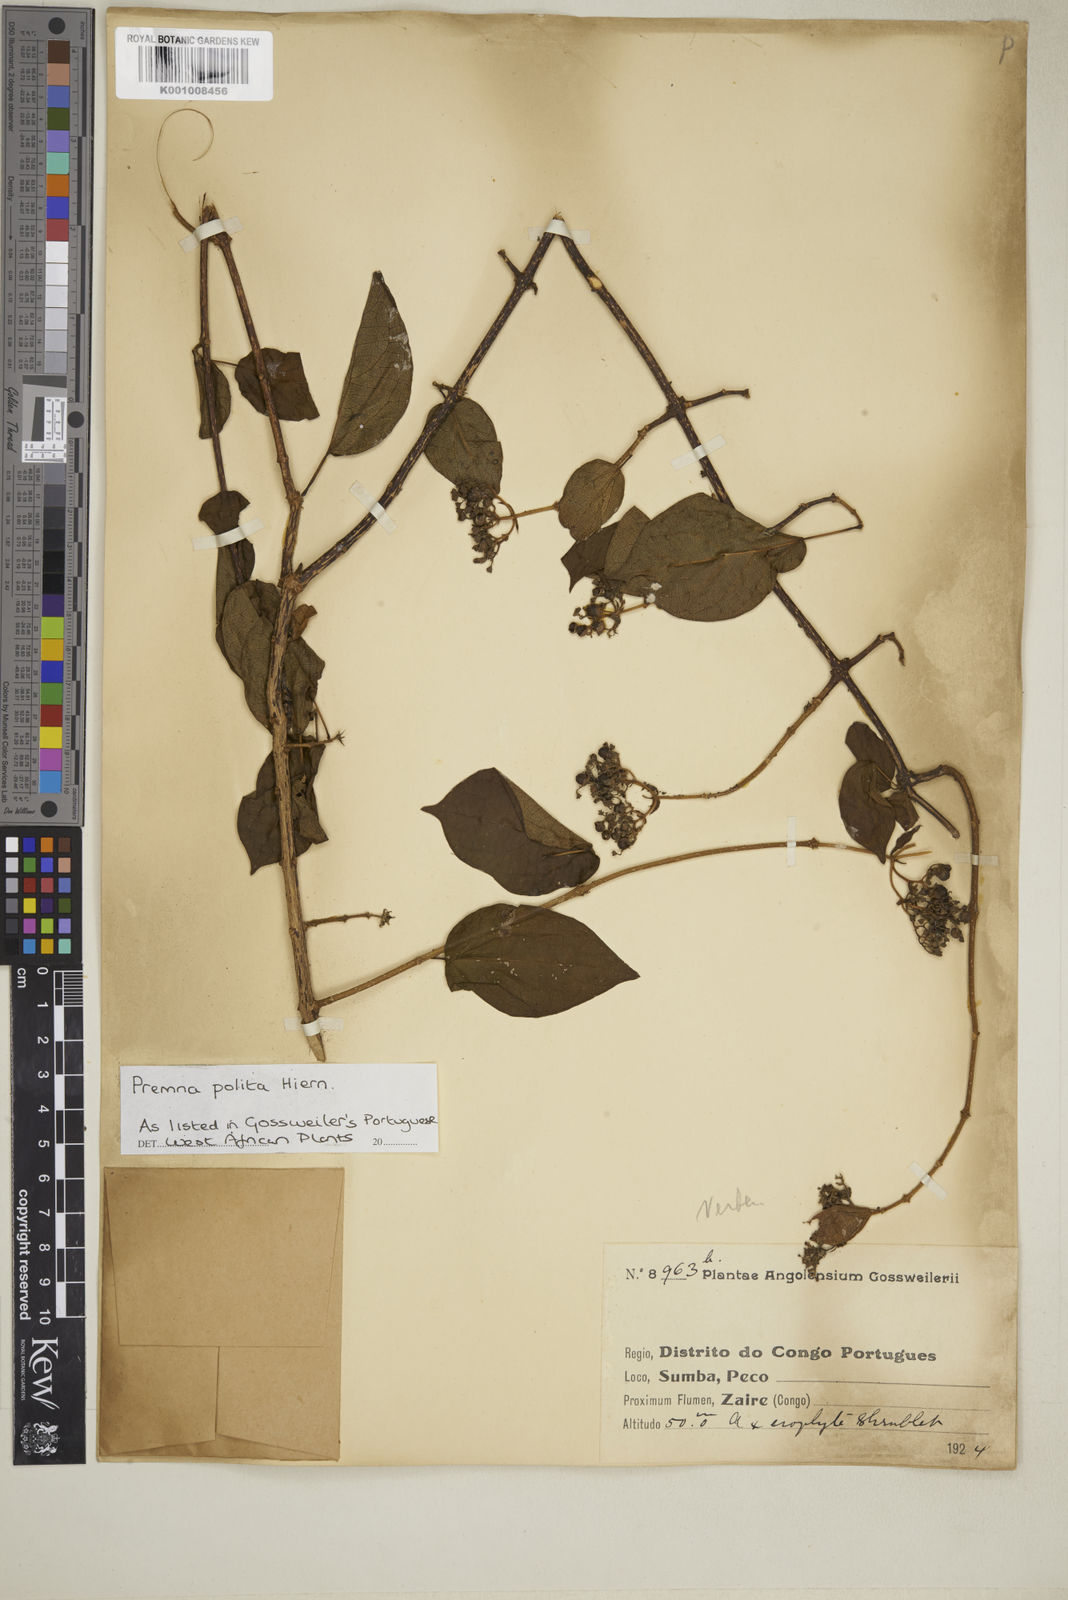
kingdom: Plantae
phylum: Tracheophyta
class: Magnoliopsida
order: Lamiales
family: Lamiaceae
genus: Premna
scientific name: Premna polita
